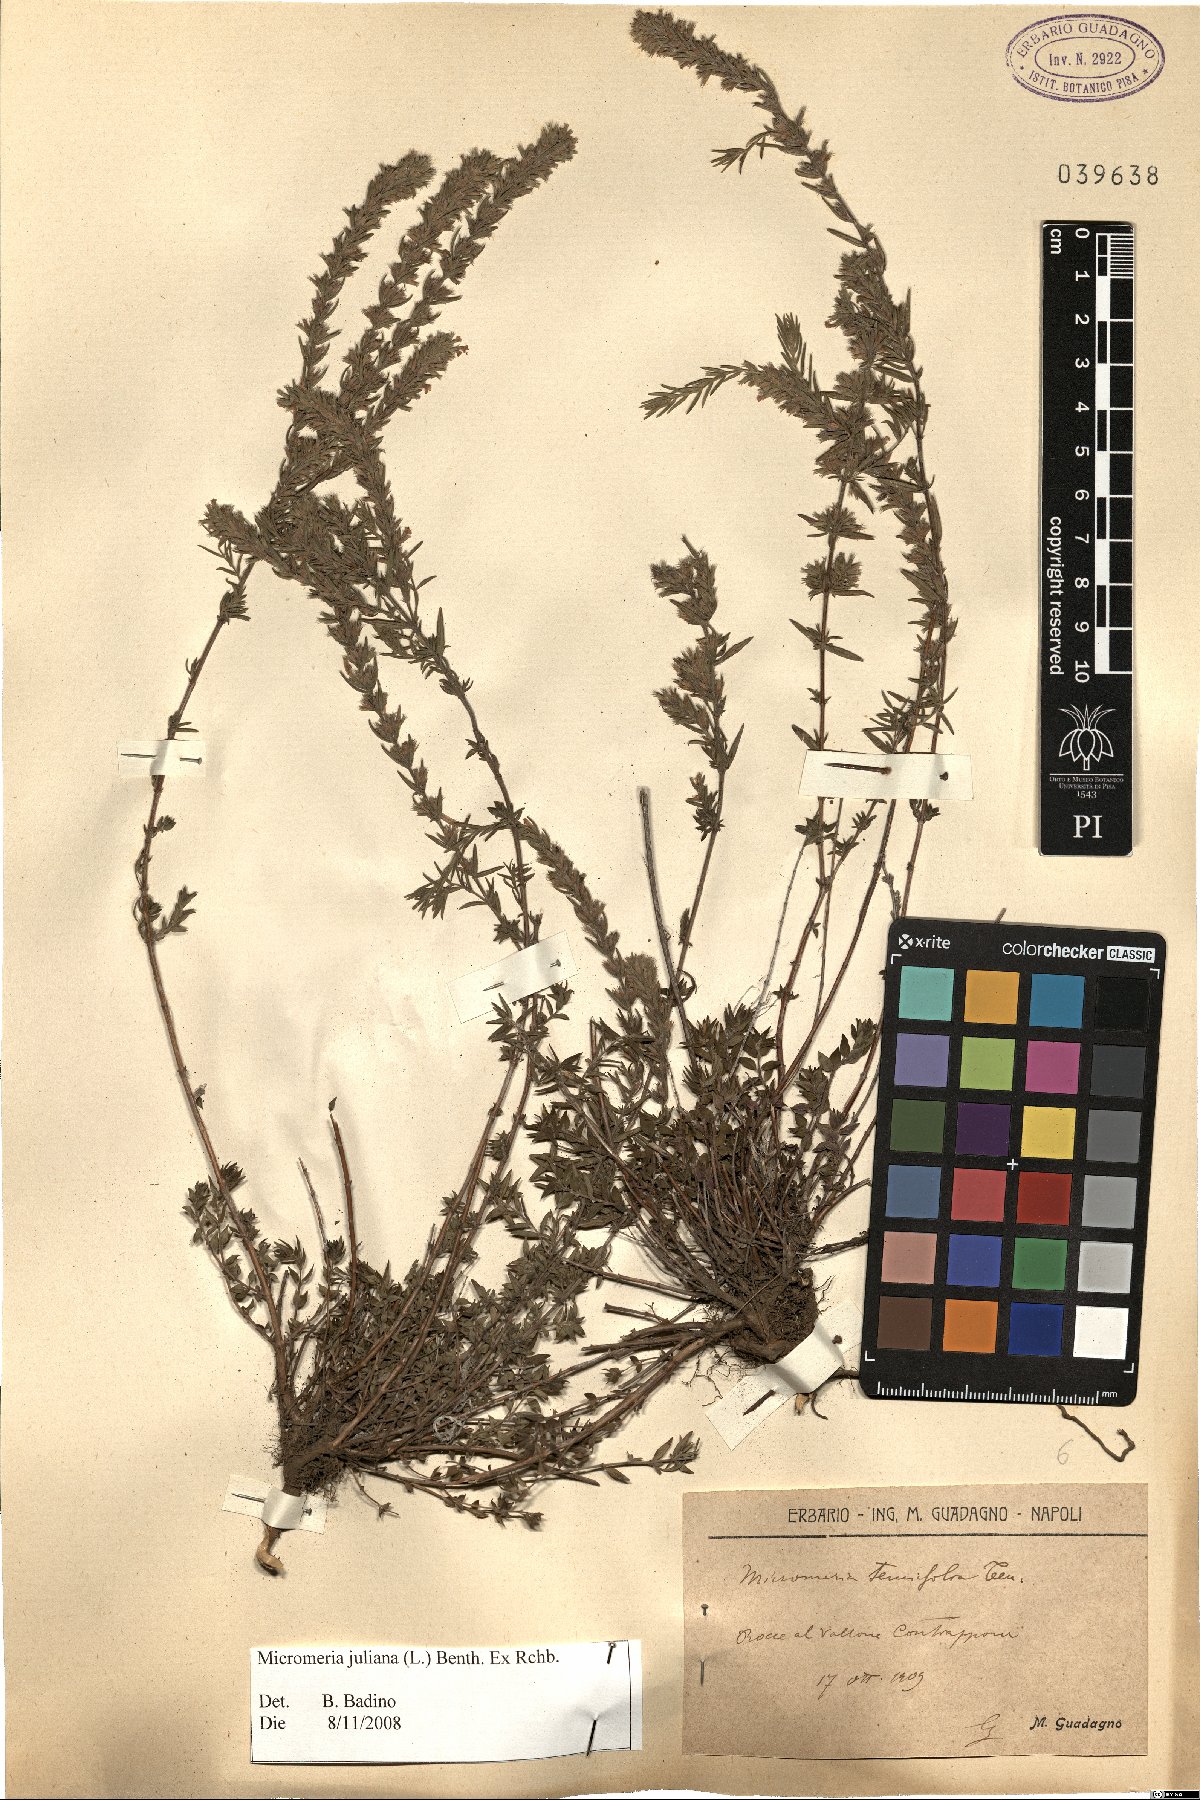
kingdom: Plantae
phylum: Tracheophyta
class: Magnoliopsida
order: Lamiales
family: Lamiaceae
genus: Micromeria
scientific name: Micromeria juliana
